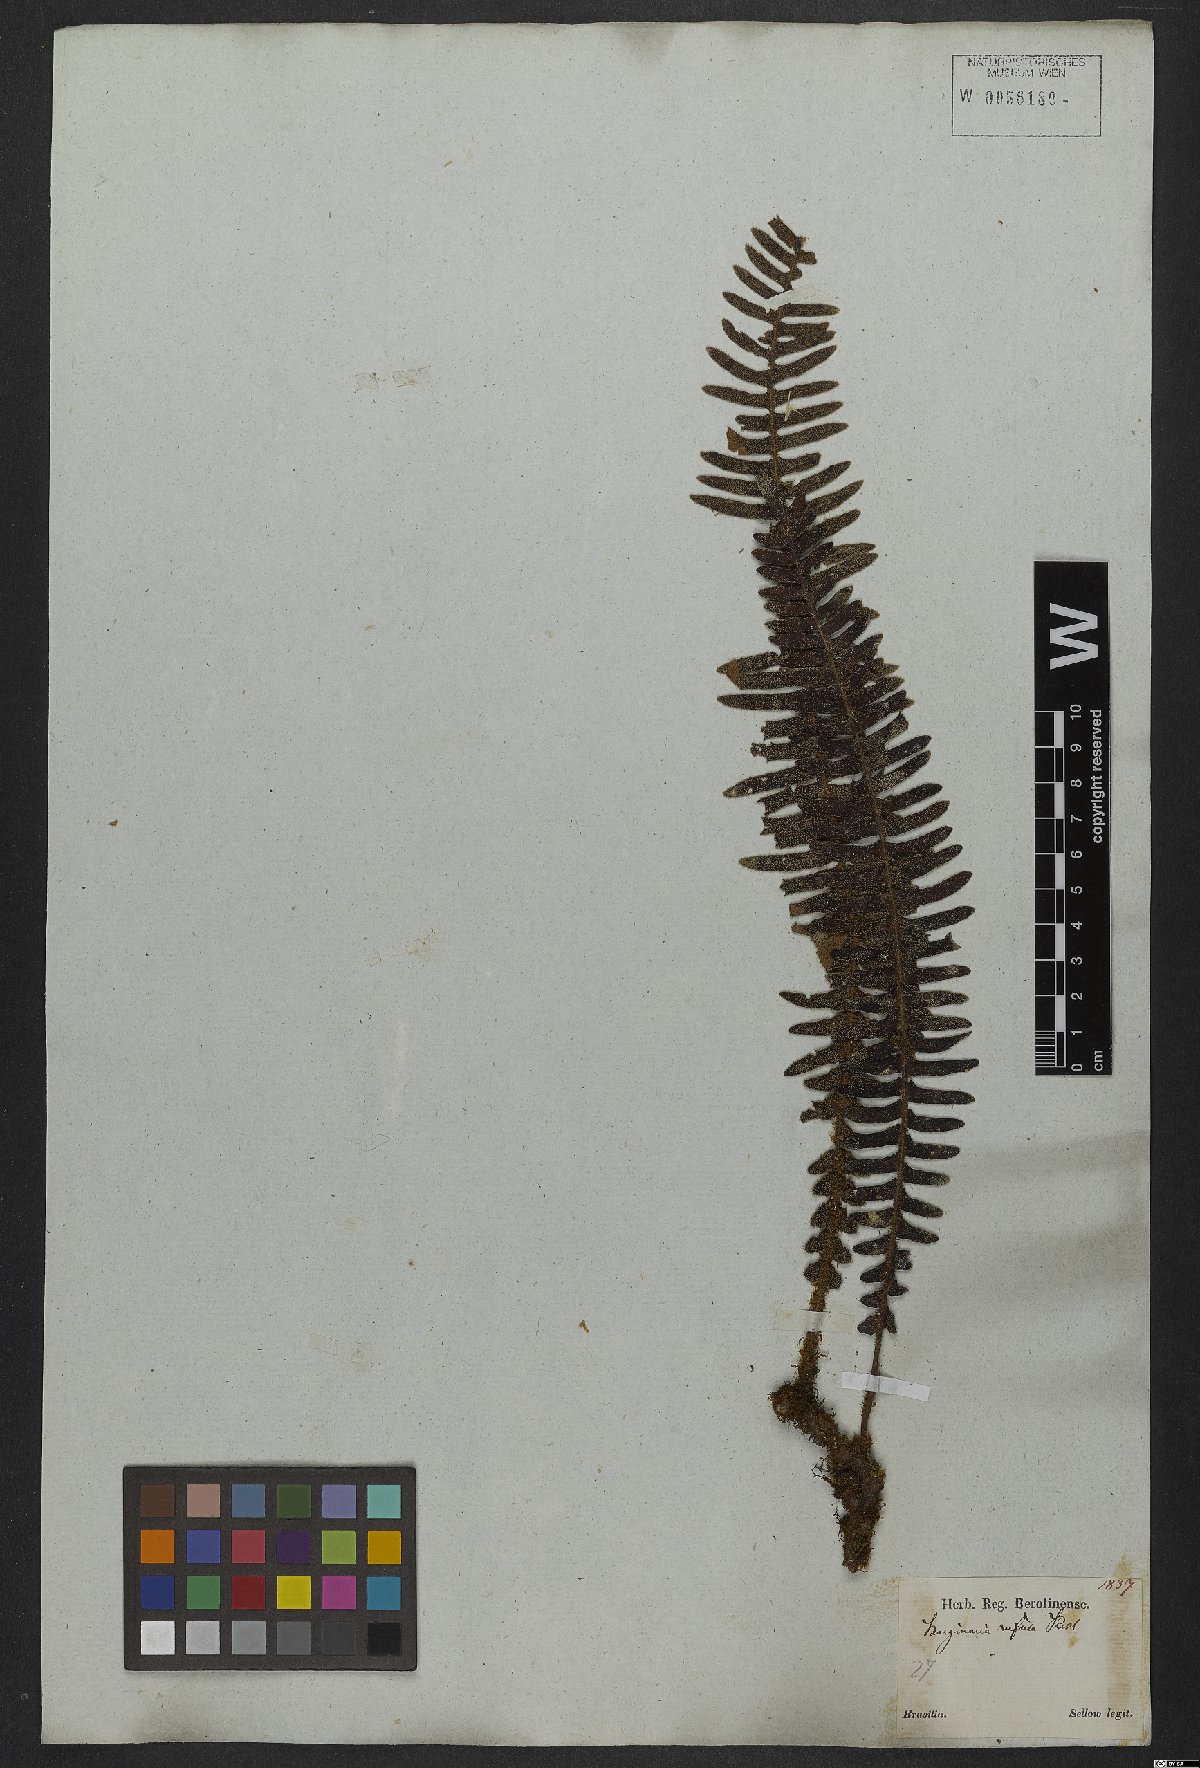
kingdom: Plantae
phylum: Tracheophyta
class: Polypodiopsida
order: Polypodiales
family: Polypodiaceae
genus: Pleopeltis
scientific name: Pleopeltis lepidopteris
